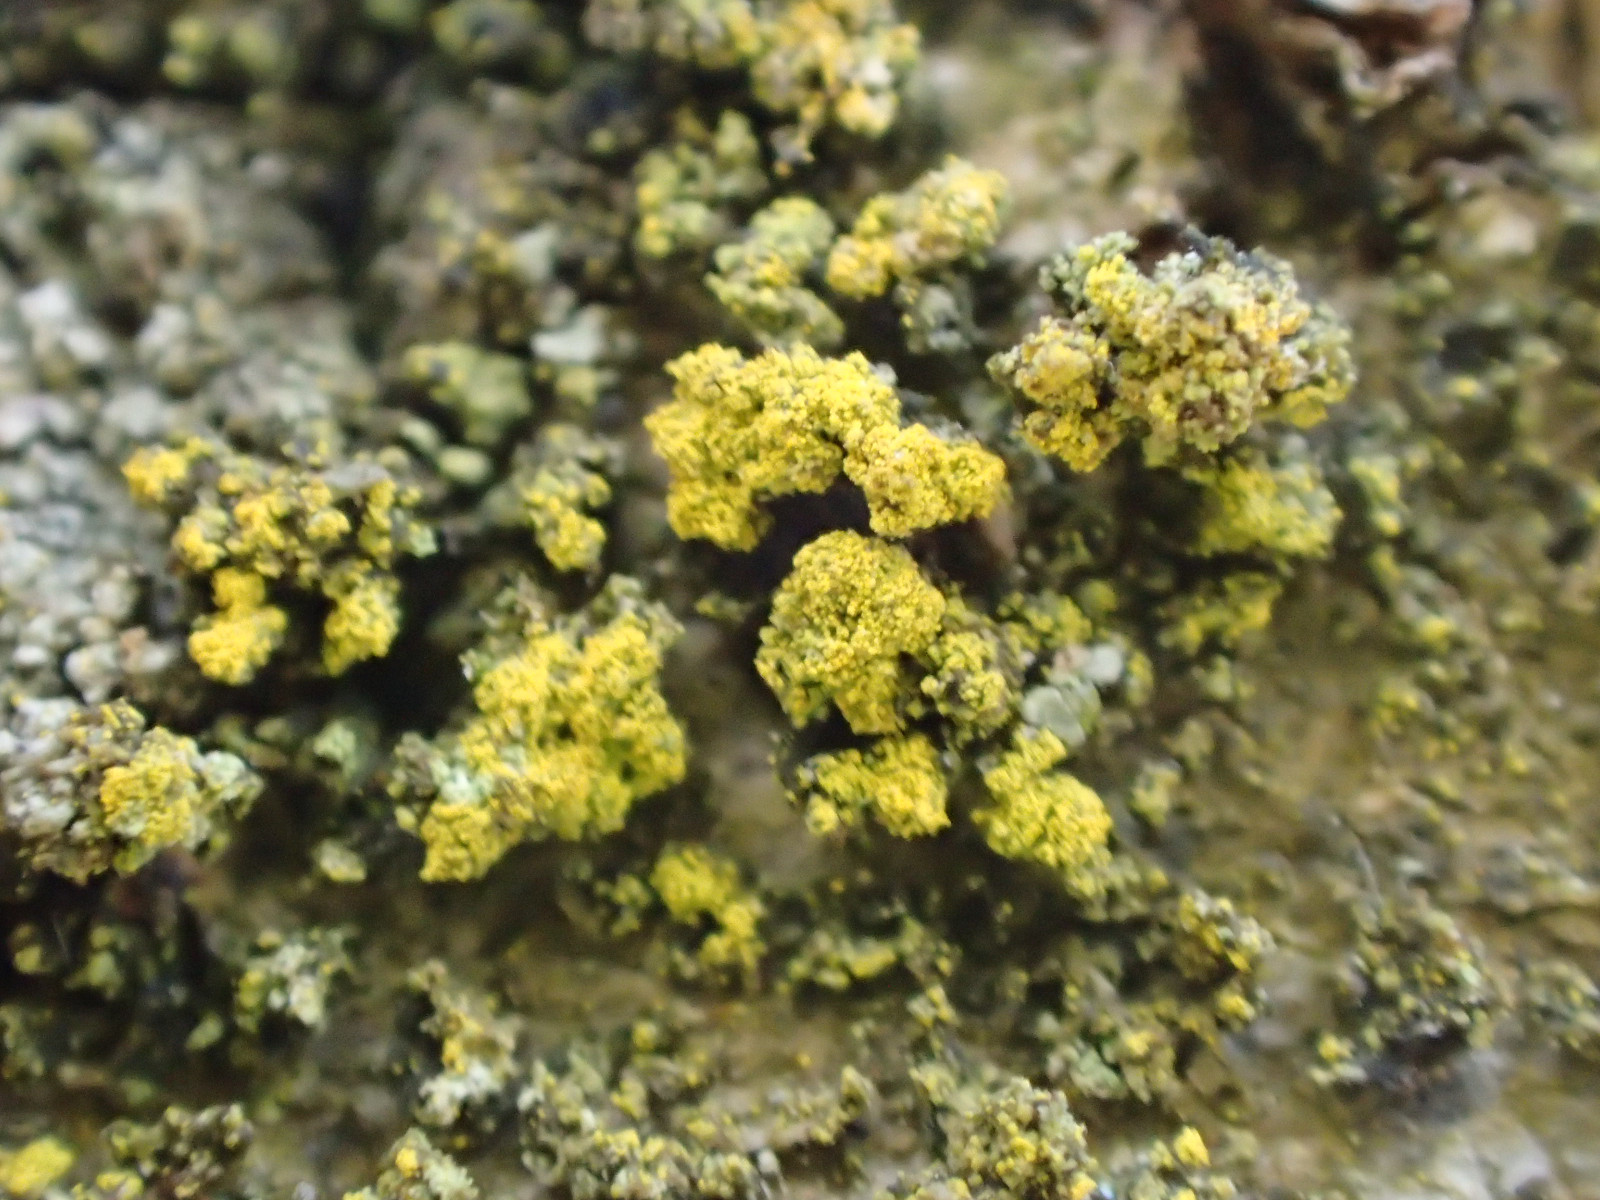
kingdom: Fungi
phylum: Ascomycota
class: Candelariomycetes
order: Candelariales
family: Candelariaceae
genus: Candelariella
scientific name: Candelariella reflexa
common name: grynskællet æggeblommelav
